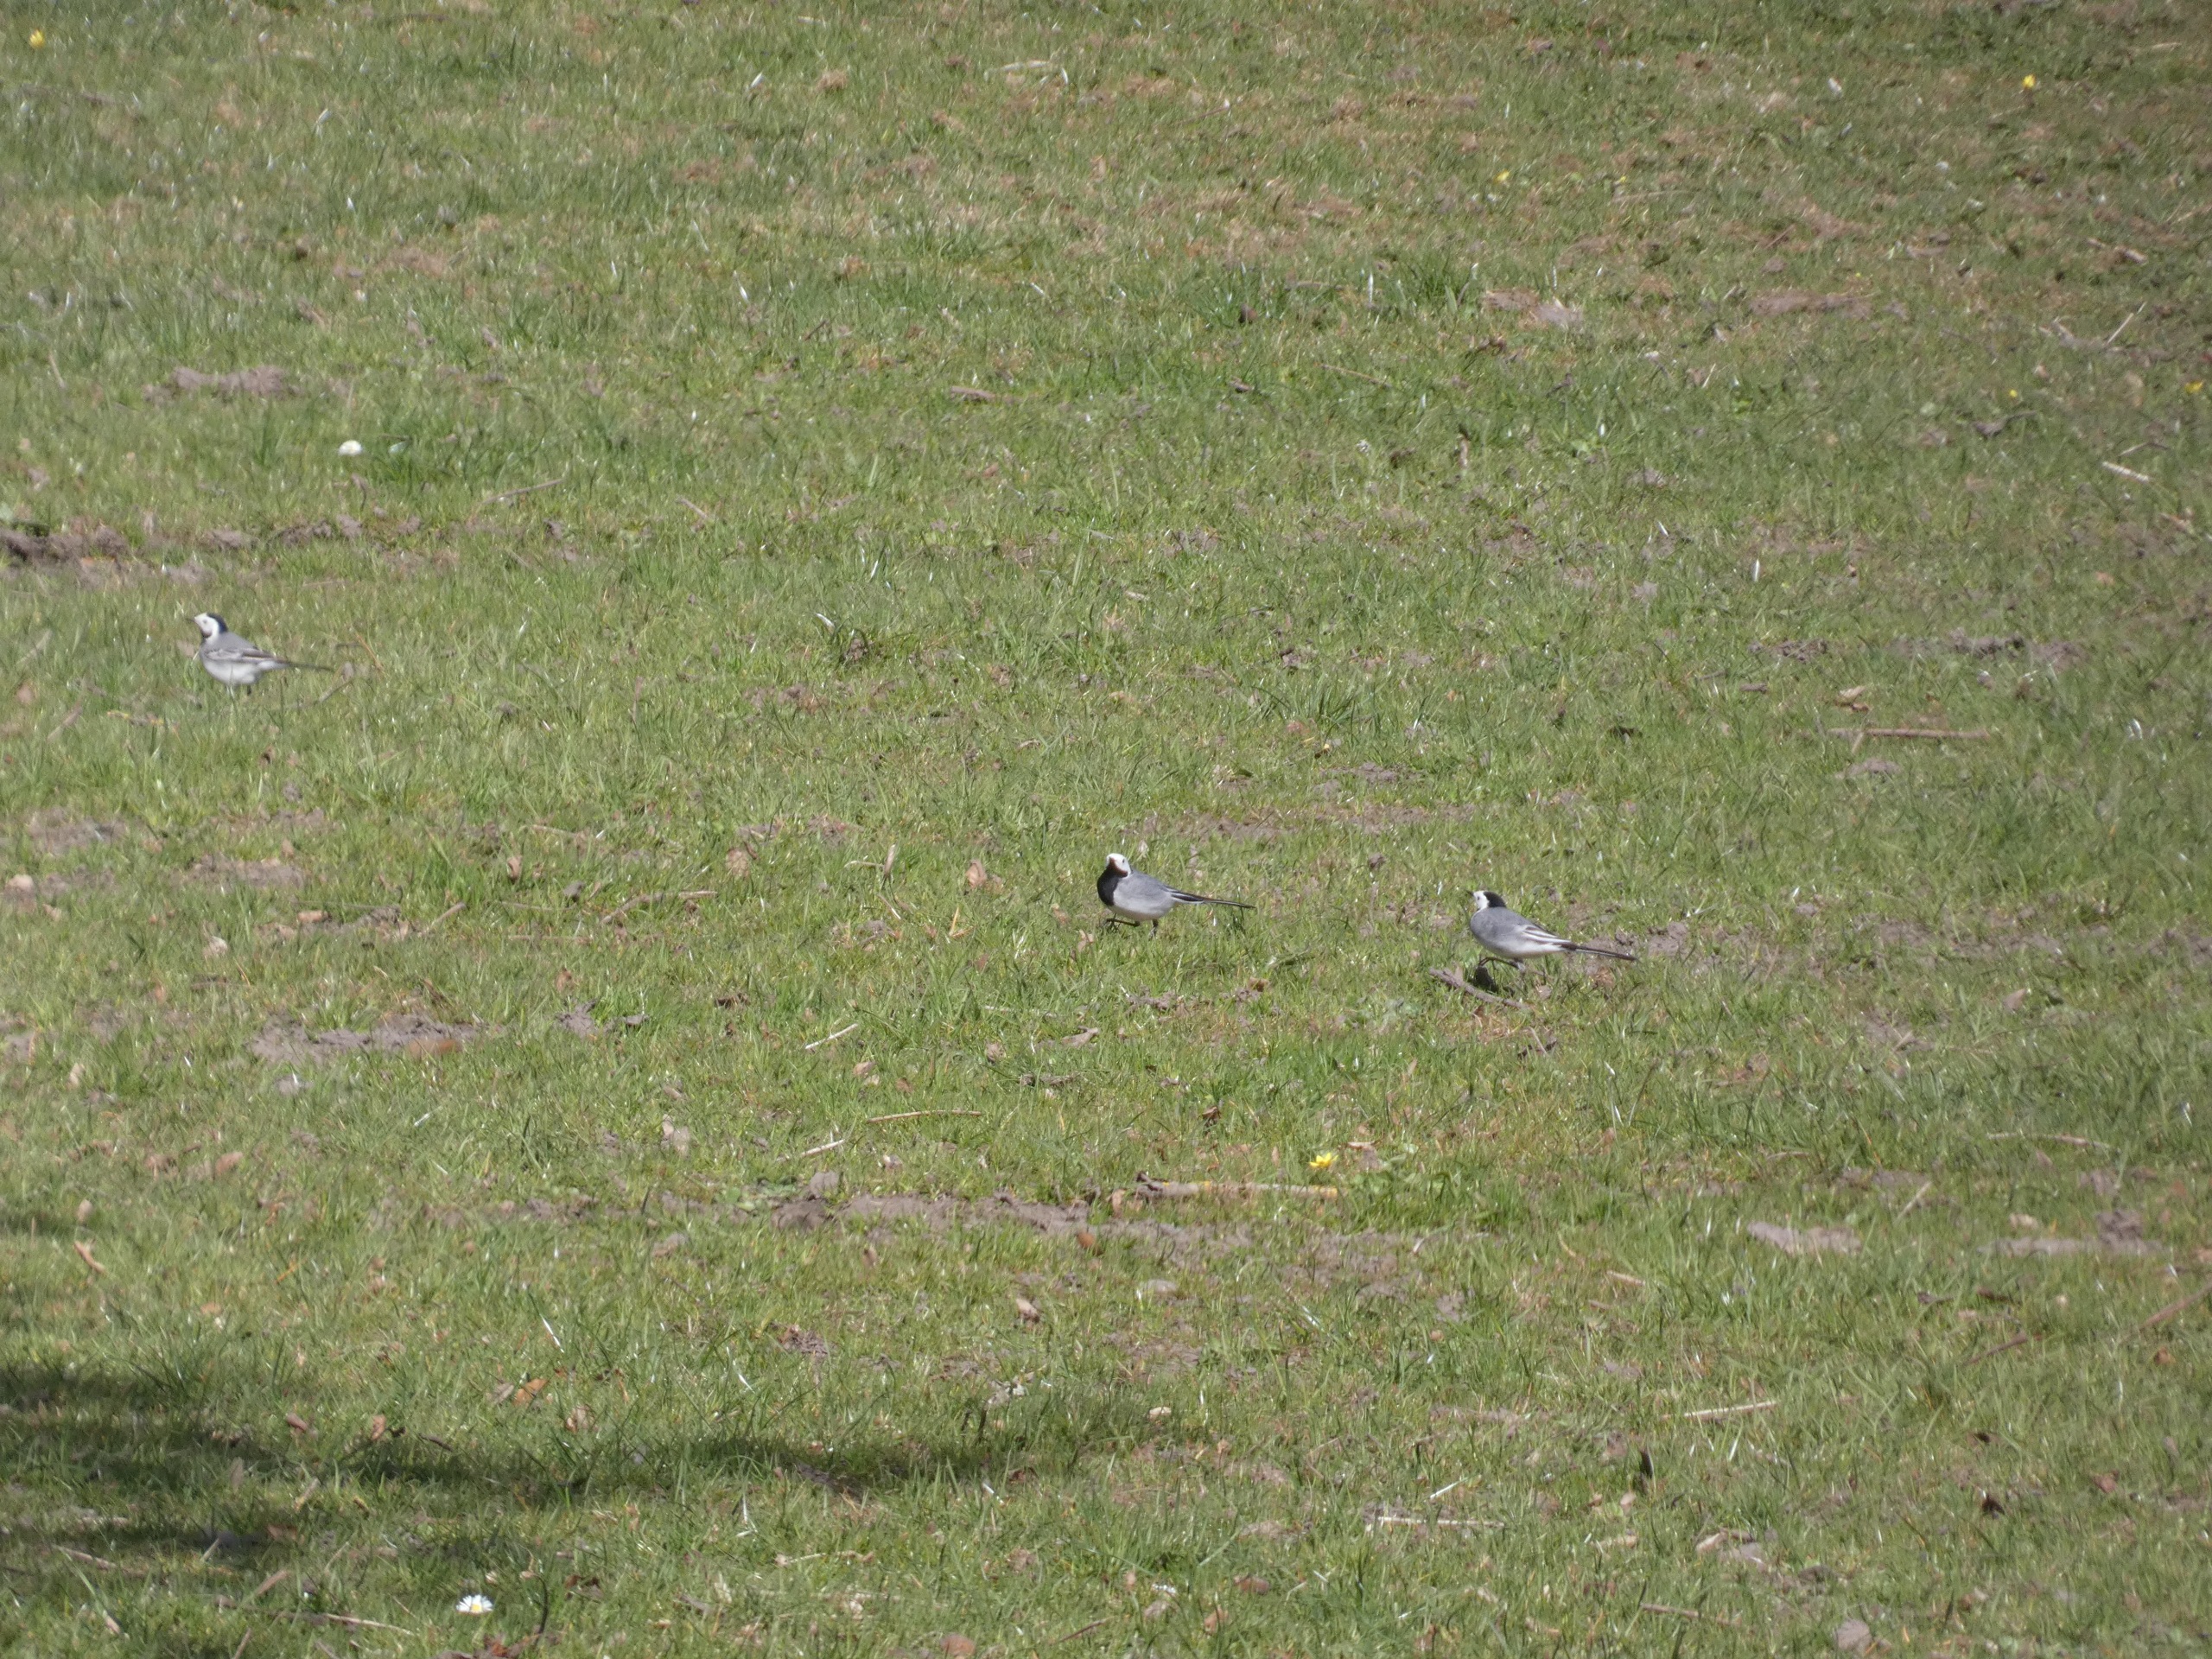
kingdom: Animalia
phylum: Chordata
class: Aves
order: Passeriformes
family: Motacillidae
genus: Motacilla
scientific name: Motacilla alba
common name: Hvid vipstjert
